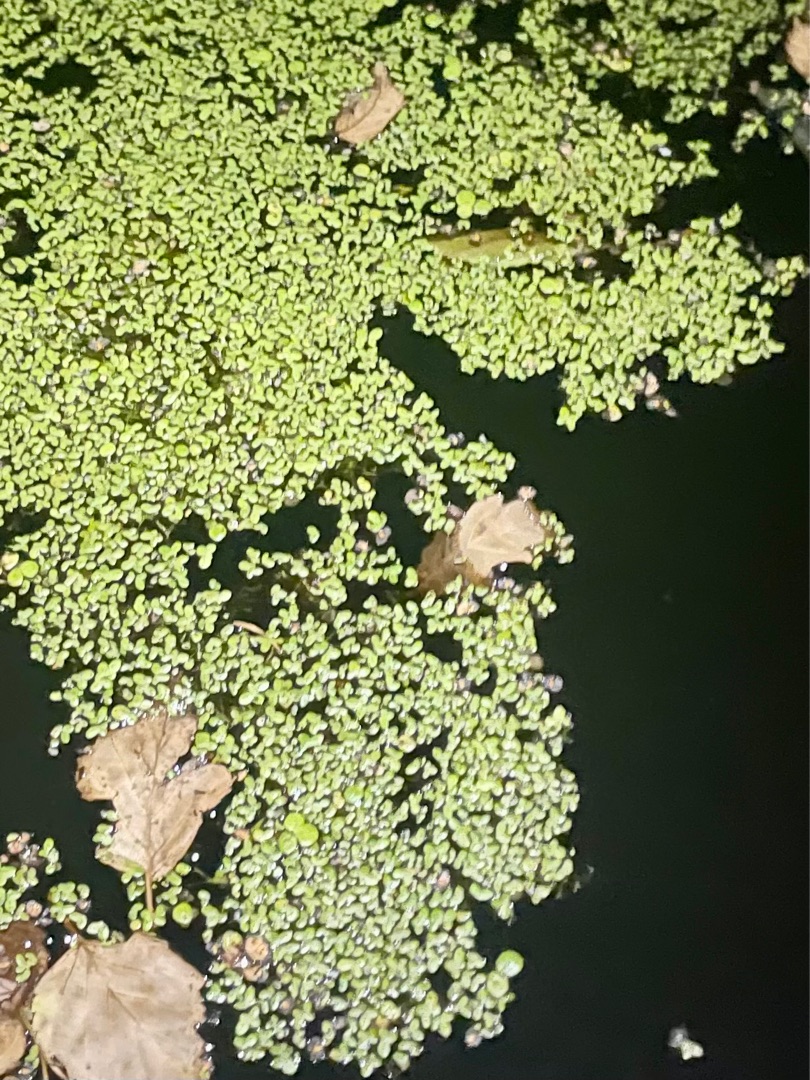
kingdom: Plantae
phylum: Tracheophyta
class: Liliopsida
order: Alismatales
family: Araceae
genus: Lemna
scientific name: Lemna
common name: Andemad (Lemna-slægten)
